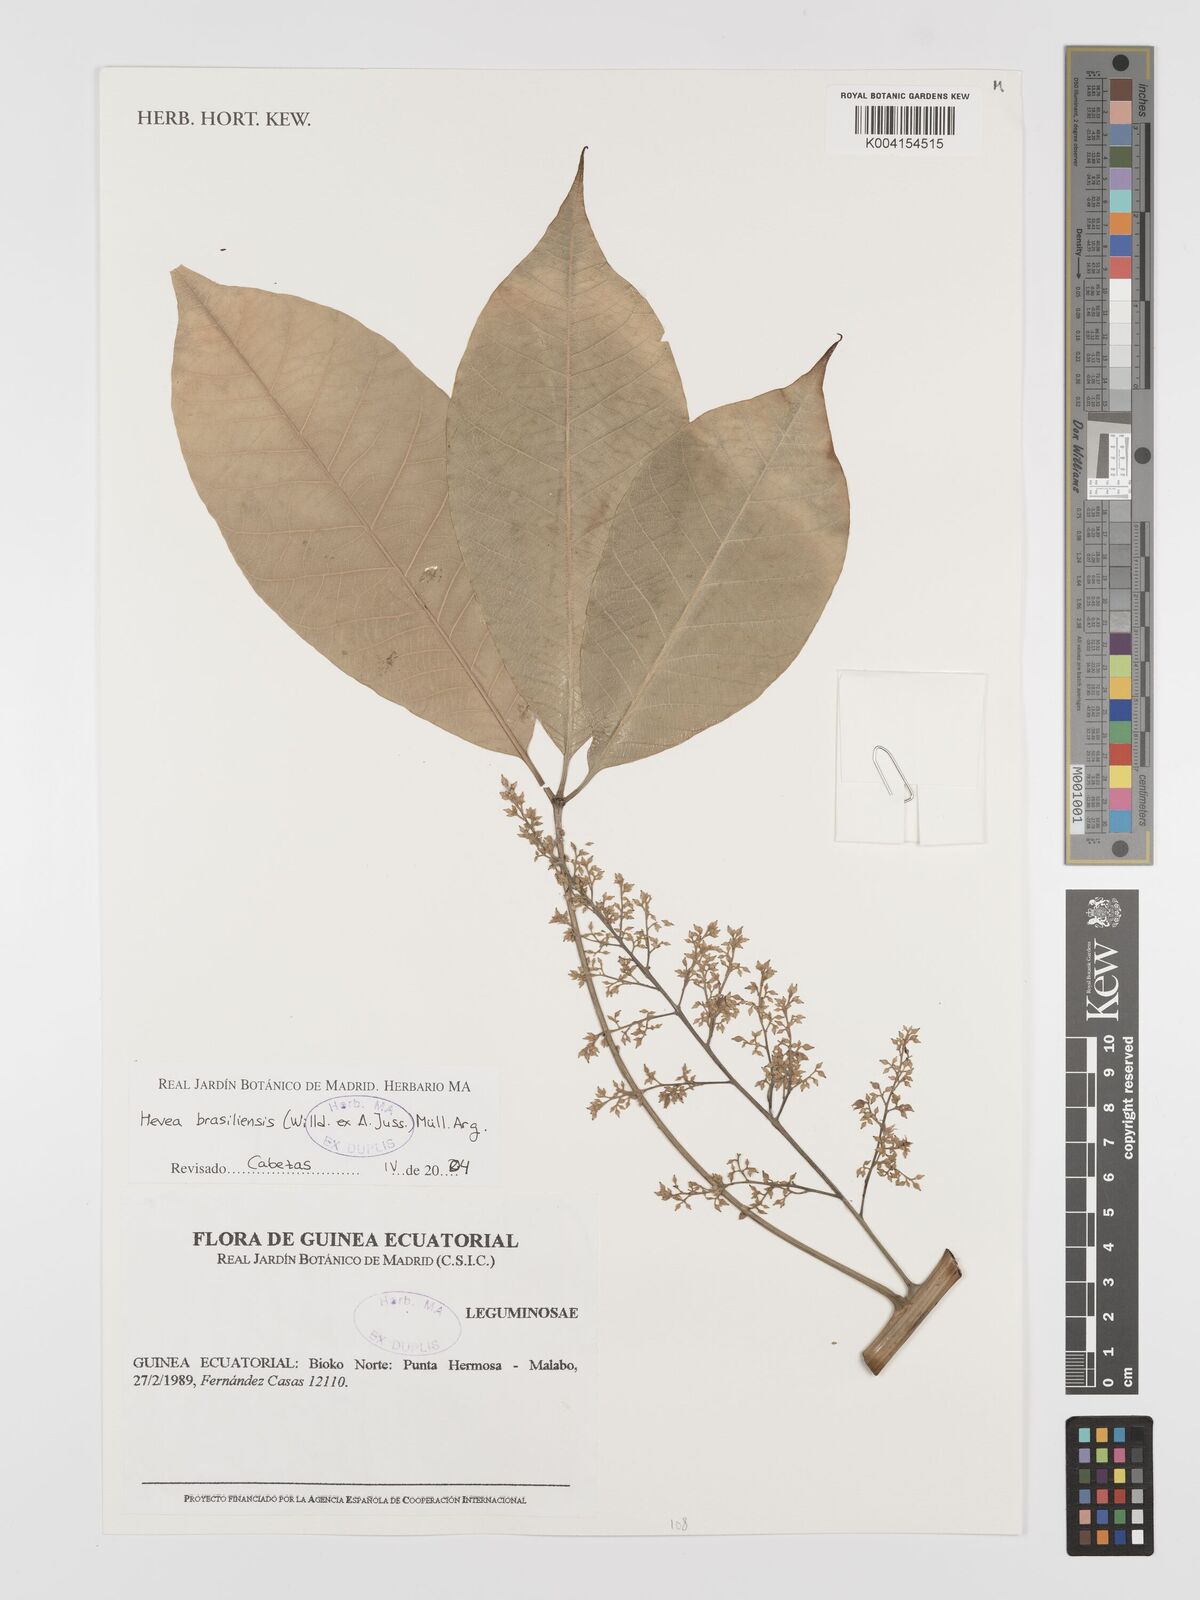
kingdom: Plantae
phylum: Tracheophyta
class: Magnoliopsida
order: Malpighiales
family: Euphorbiaceae
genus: Hevea
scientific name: Hevea brasiliensis
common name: Natural rubber
